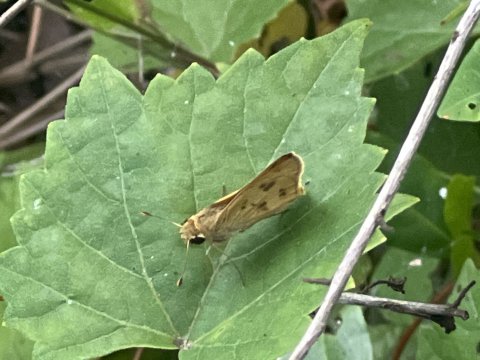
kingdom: Animalia
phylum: Arthropoda
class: Insecta
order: Lepidoptera
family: Hesperiidae
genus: Polites
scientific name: Polites vibex
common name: Whirlabout
